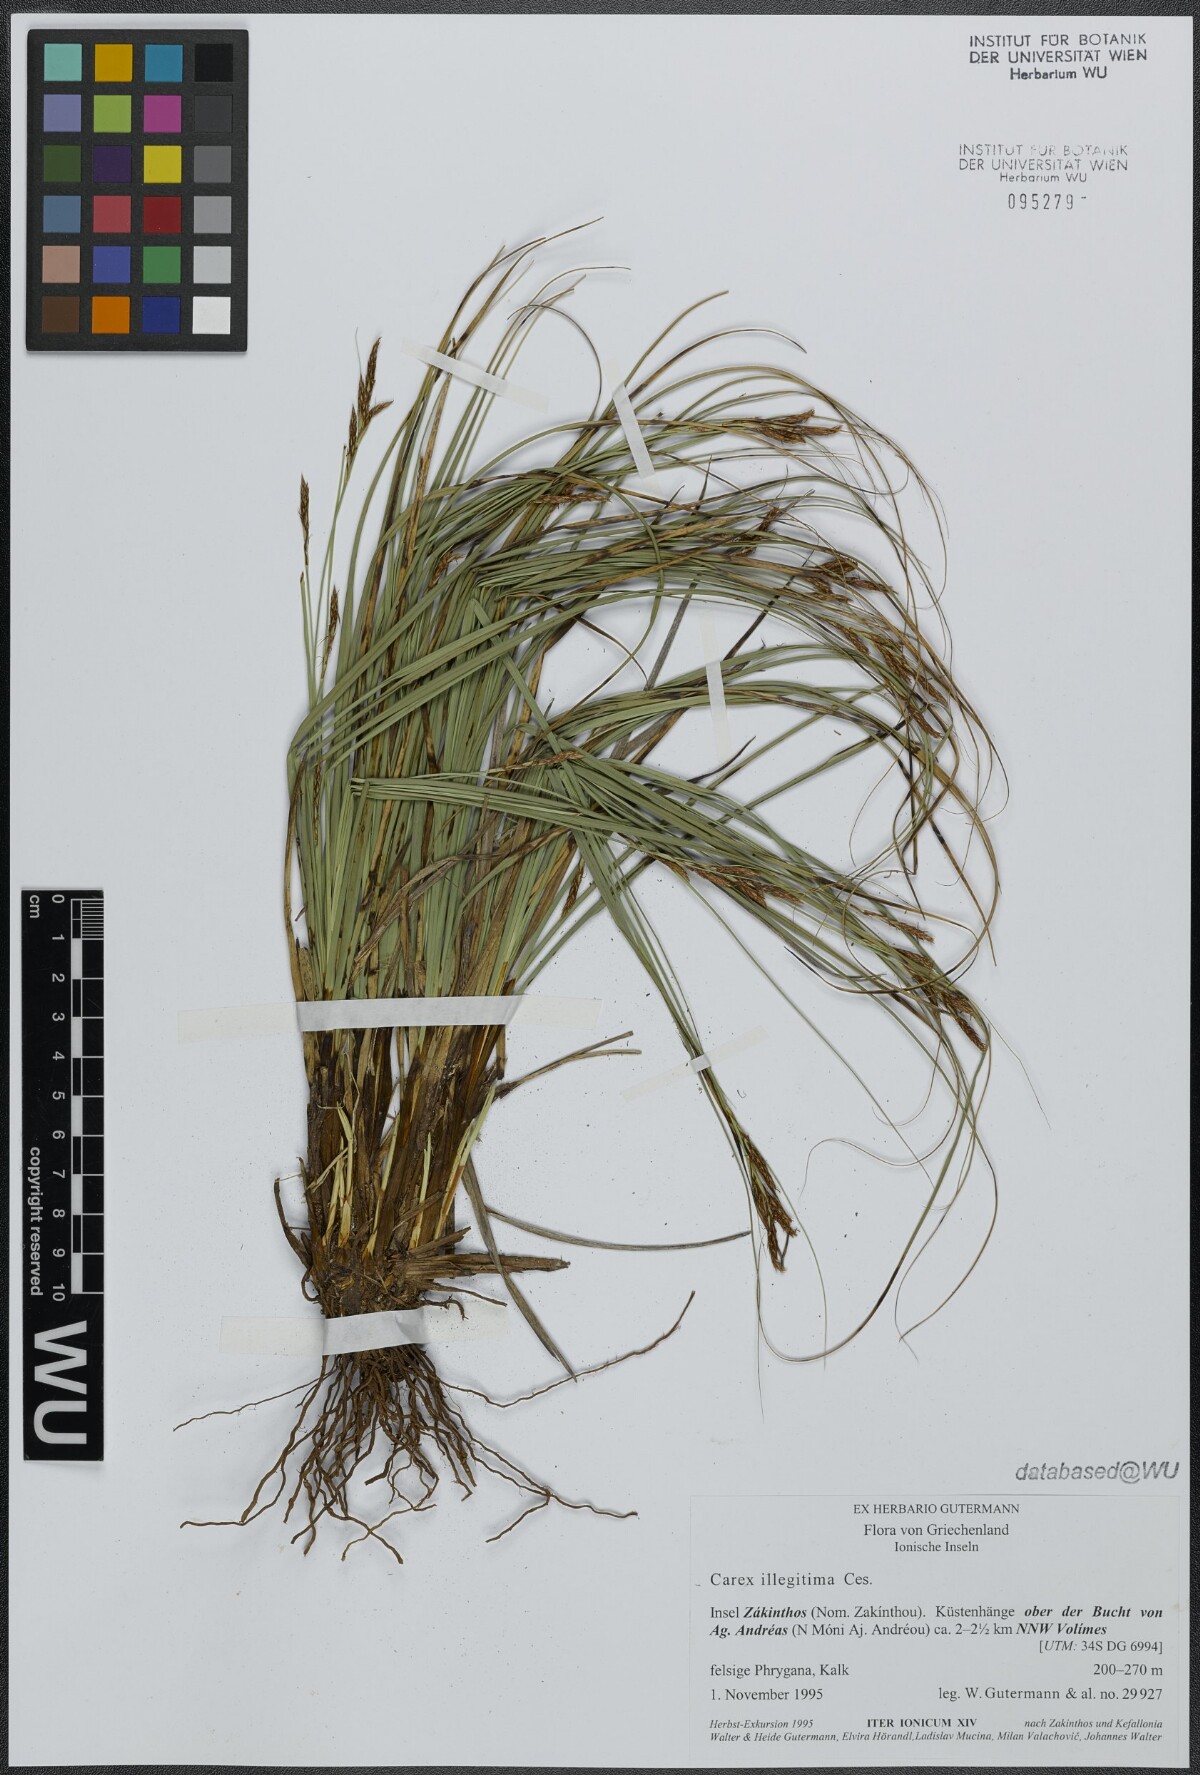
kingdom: Plantae
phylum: Tracheophyta
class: Liliopsida
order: Poales
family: Cyperaceae
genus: Carex
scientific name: Carex illegitima
